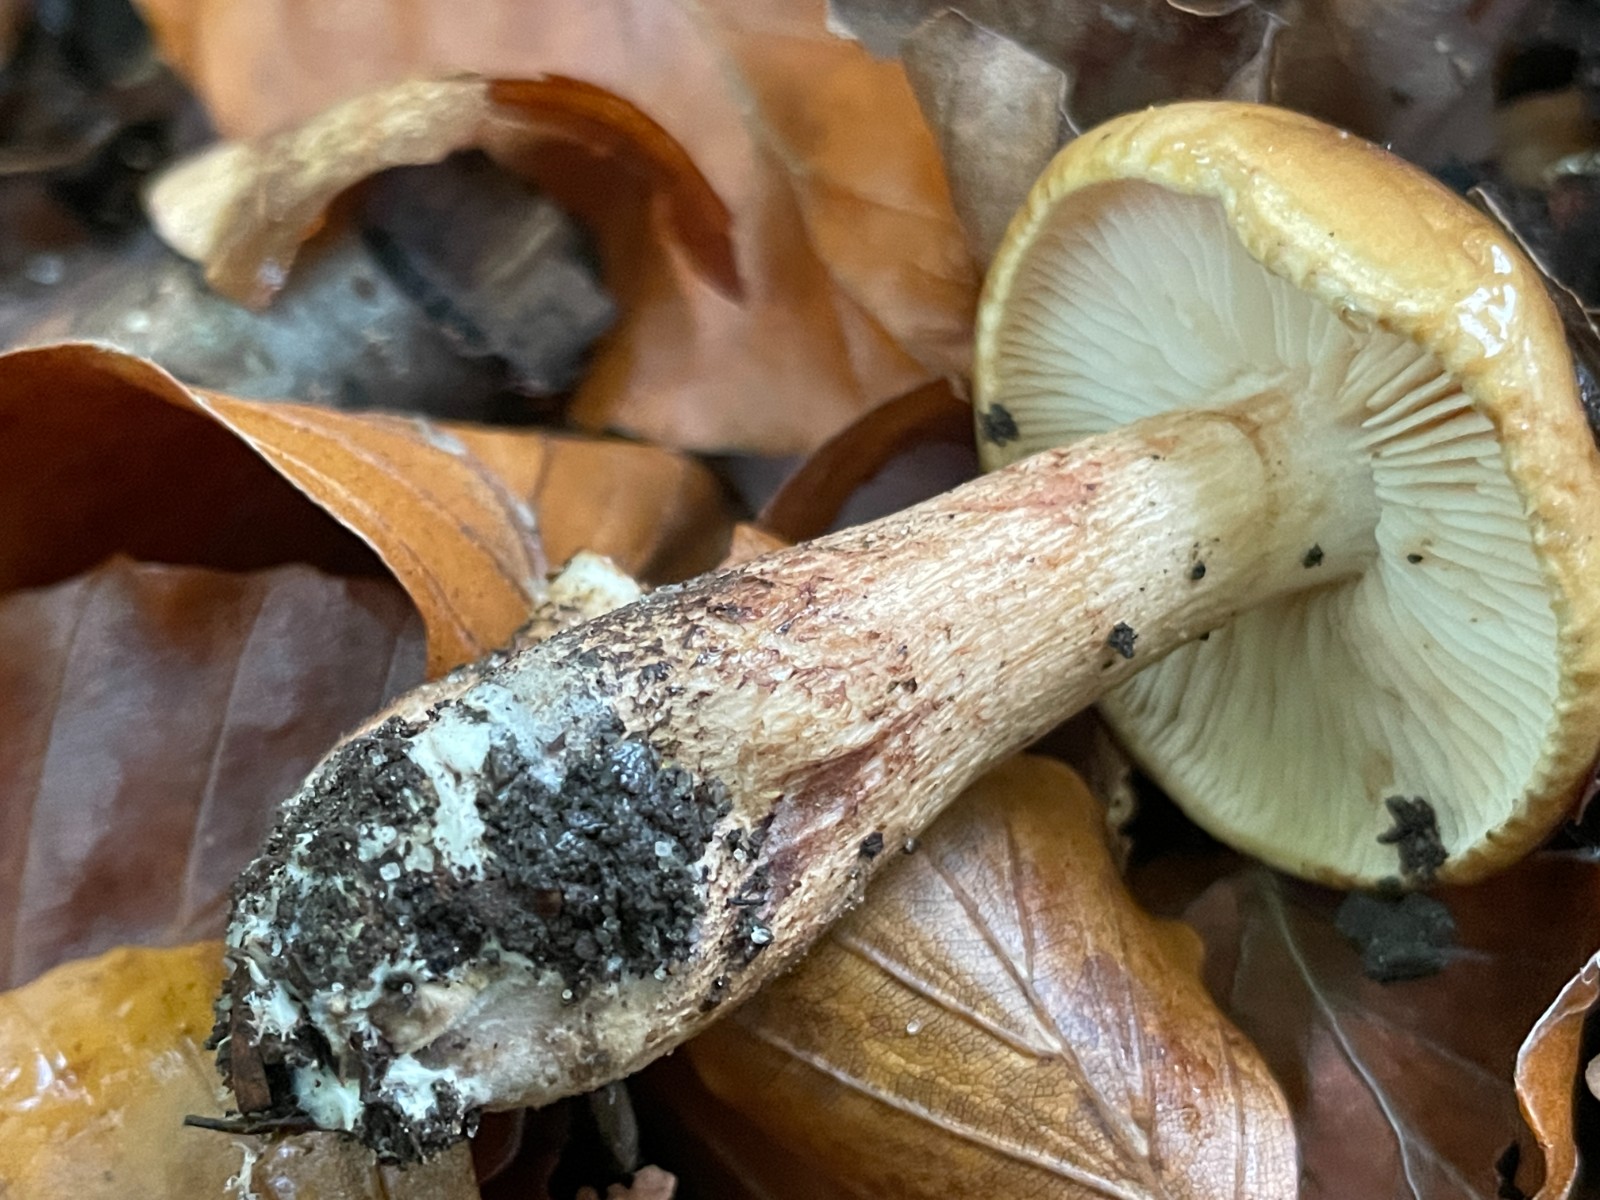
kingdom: Fungi
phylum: Basidiomycota
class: Agaricomycetes
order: Agaricales
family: Tricholomataceae
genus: Tricholoma
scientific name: Tricholoma ustale
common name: sveden ridderhat
